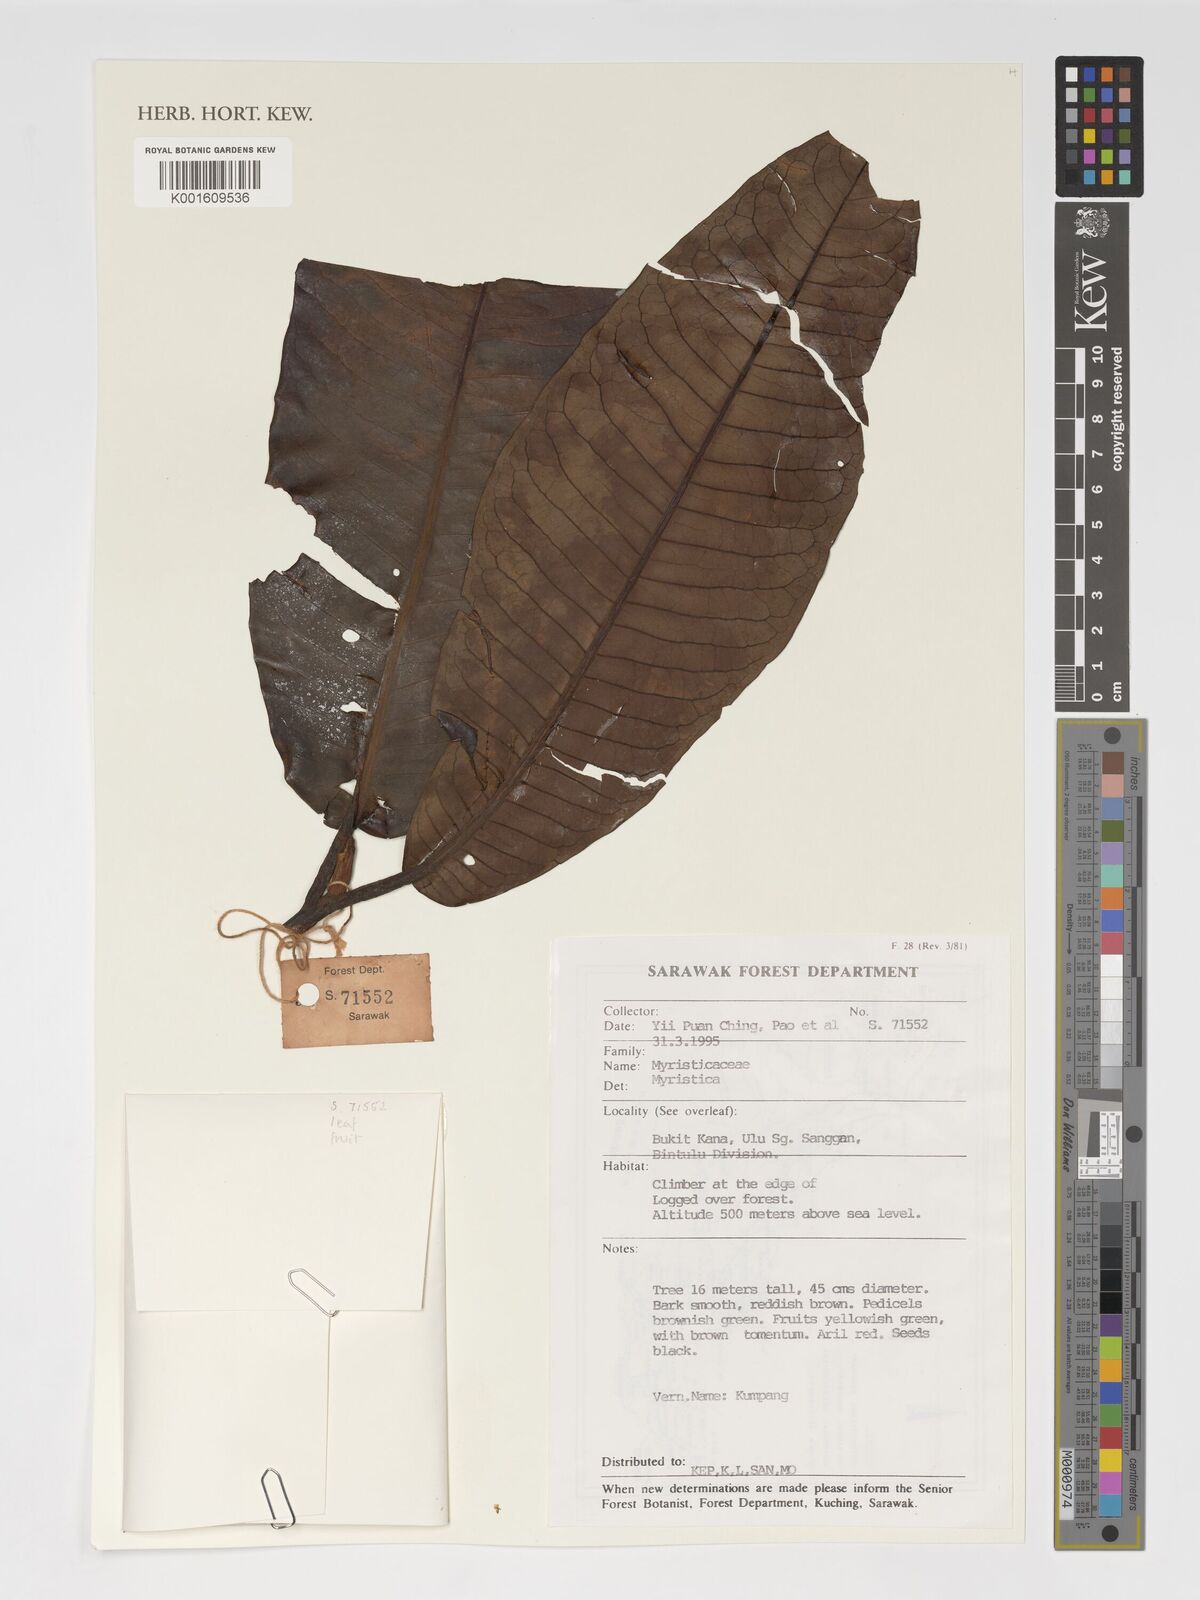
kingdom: Plantae
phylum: Tracheophyta
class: Magnoliopsida
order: Magnoliales
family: Myristicaceae
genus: Myristica
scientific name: Myristica
